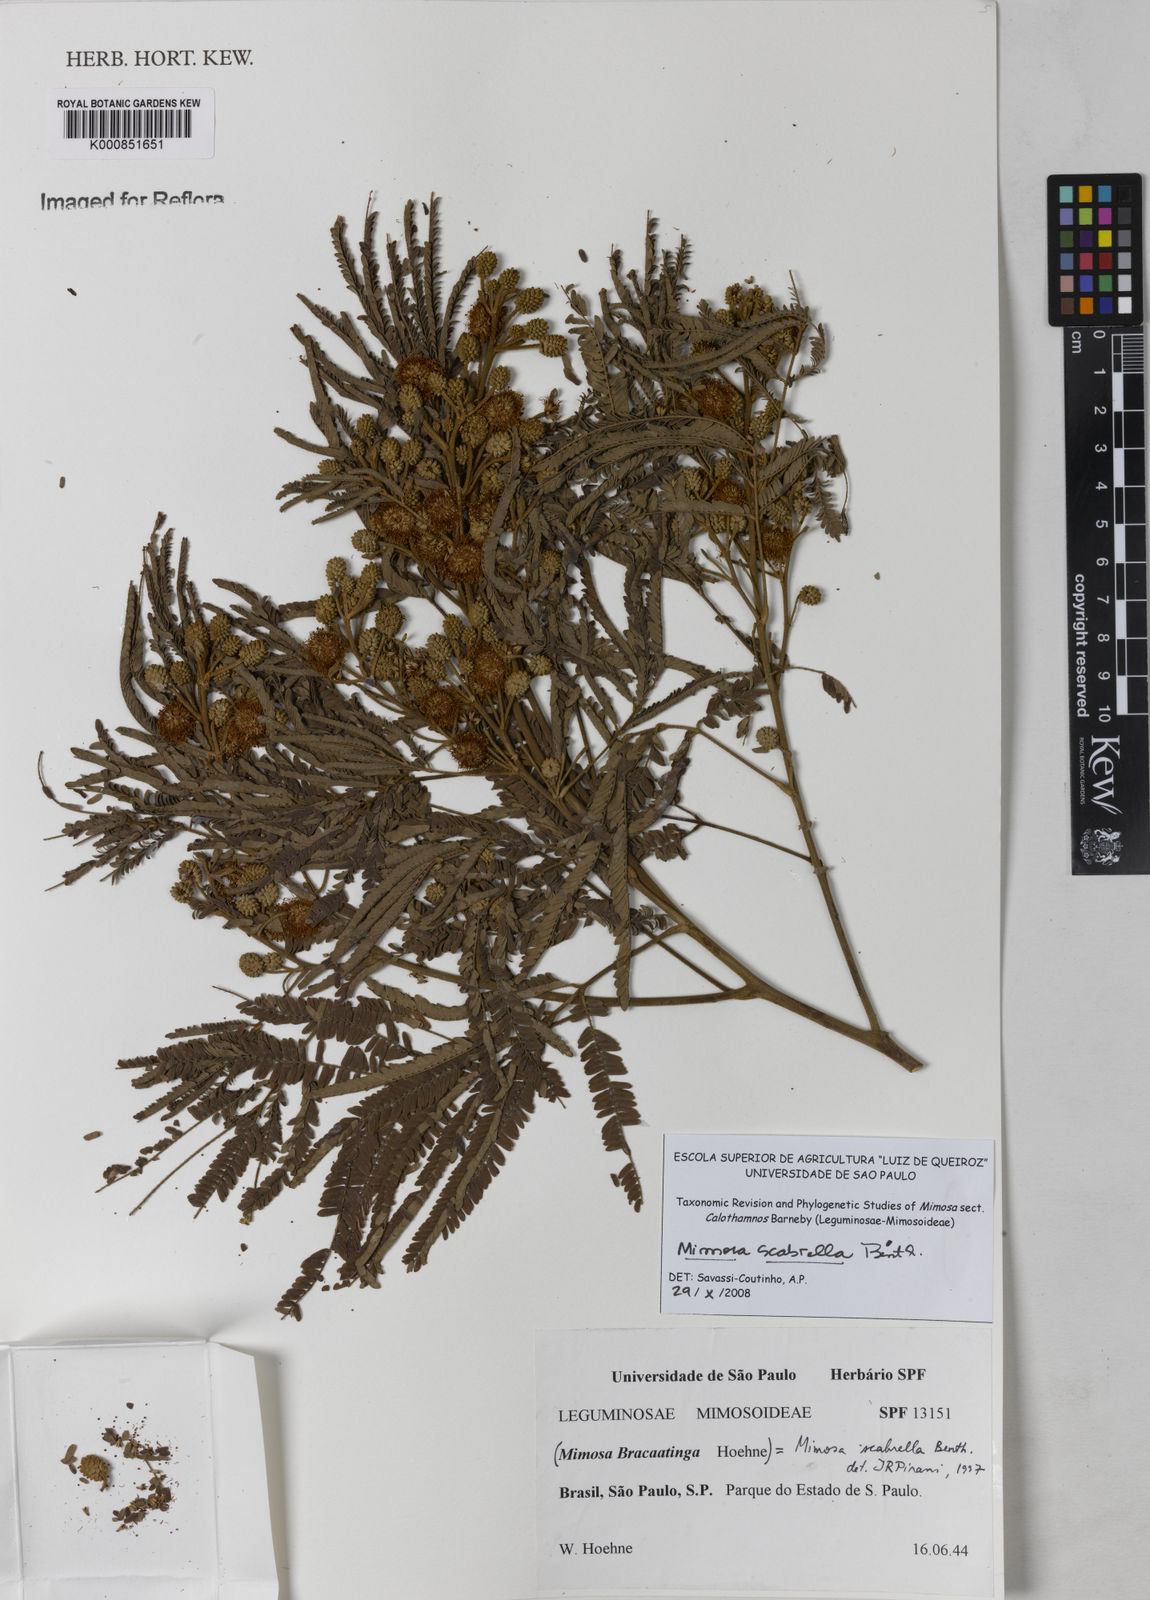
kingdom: Plantae
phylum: Tracheophyta
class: Magnoliopsida
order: Fabales
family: Fabaceae
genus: Mimosa
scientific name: Mimosa scabrella
